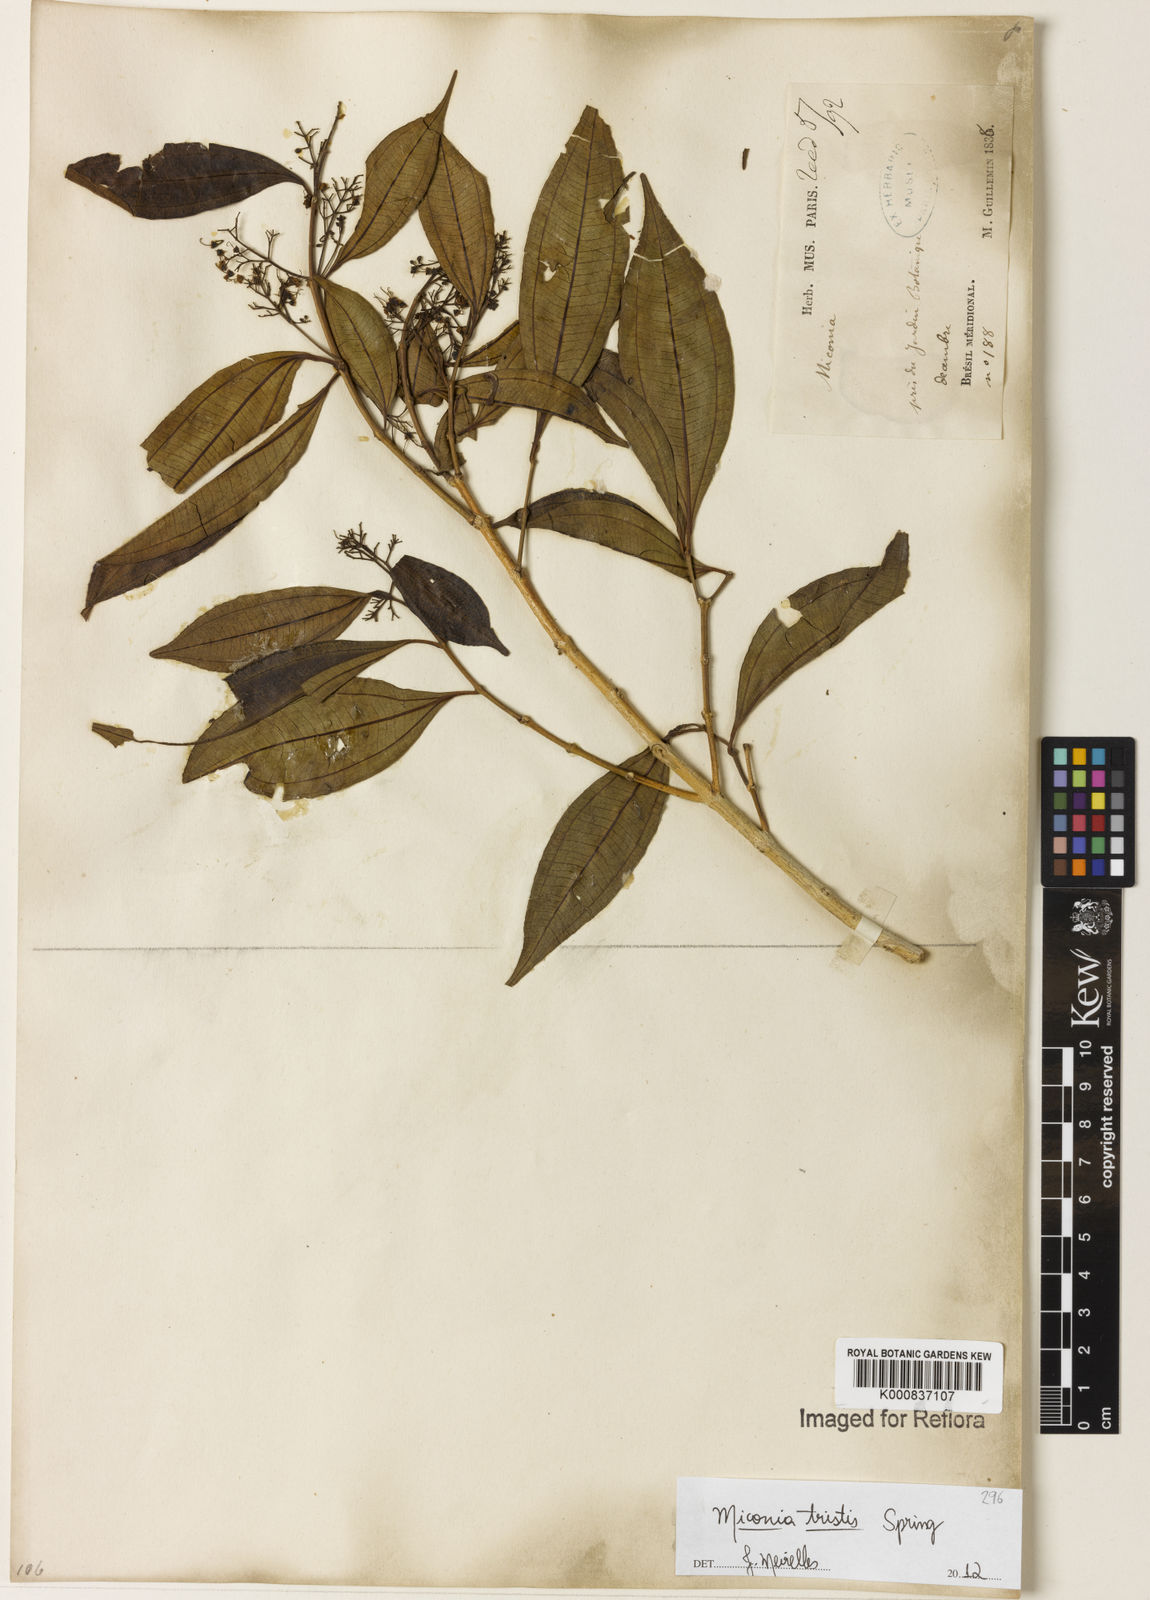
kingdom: Plantae
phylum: Tracheophyta
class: Magnoliopsida
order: Myrtales
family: Melastomataceae
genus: Miconia
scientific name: Miconia
